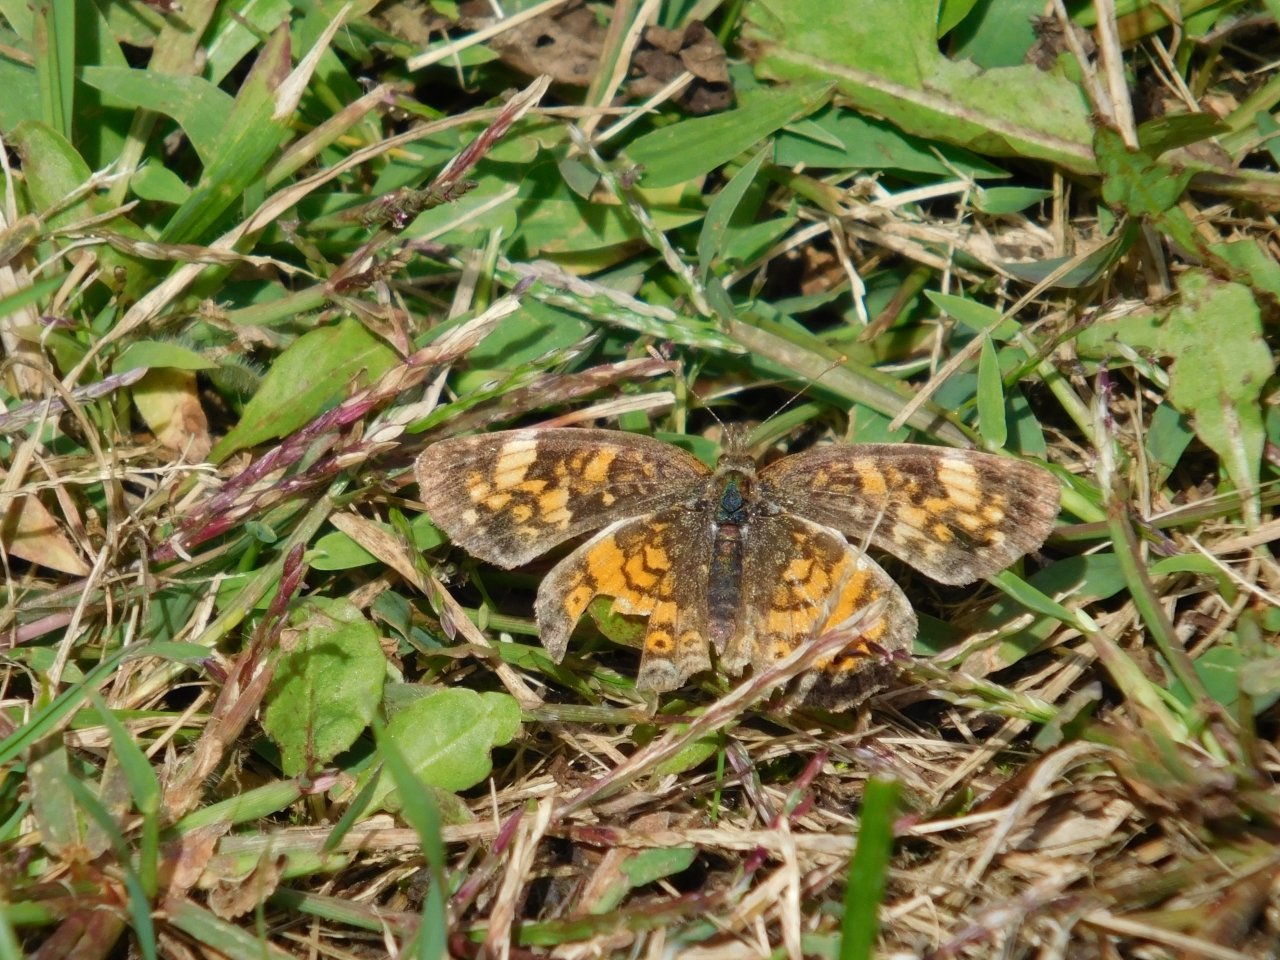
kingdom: Animalia
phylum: Arthropoda
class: Insecta
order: Lepidoptera
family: Nymphalidae
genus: Phyciodes
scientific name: Phyciodes tharos
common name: Northern Crescent
